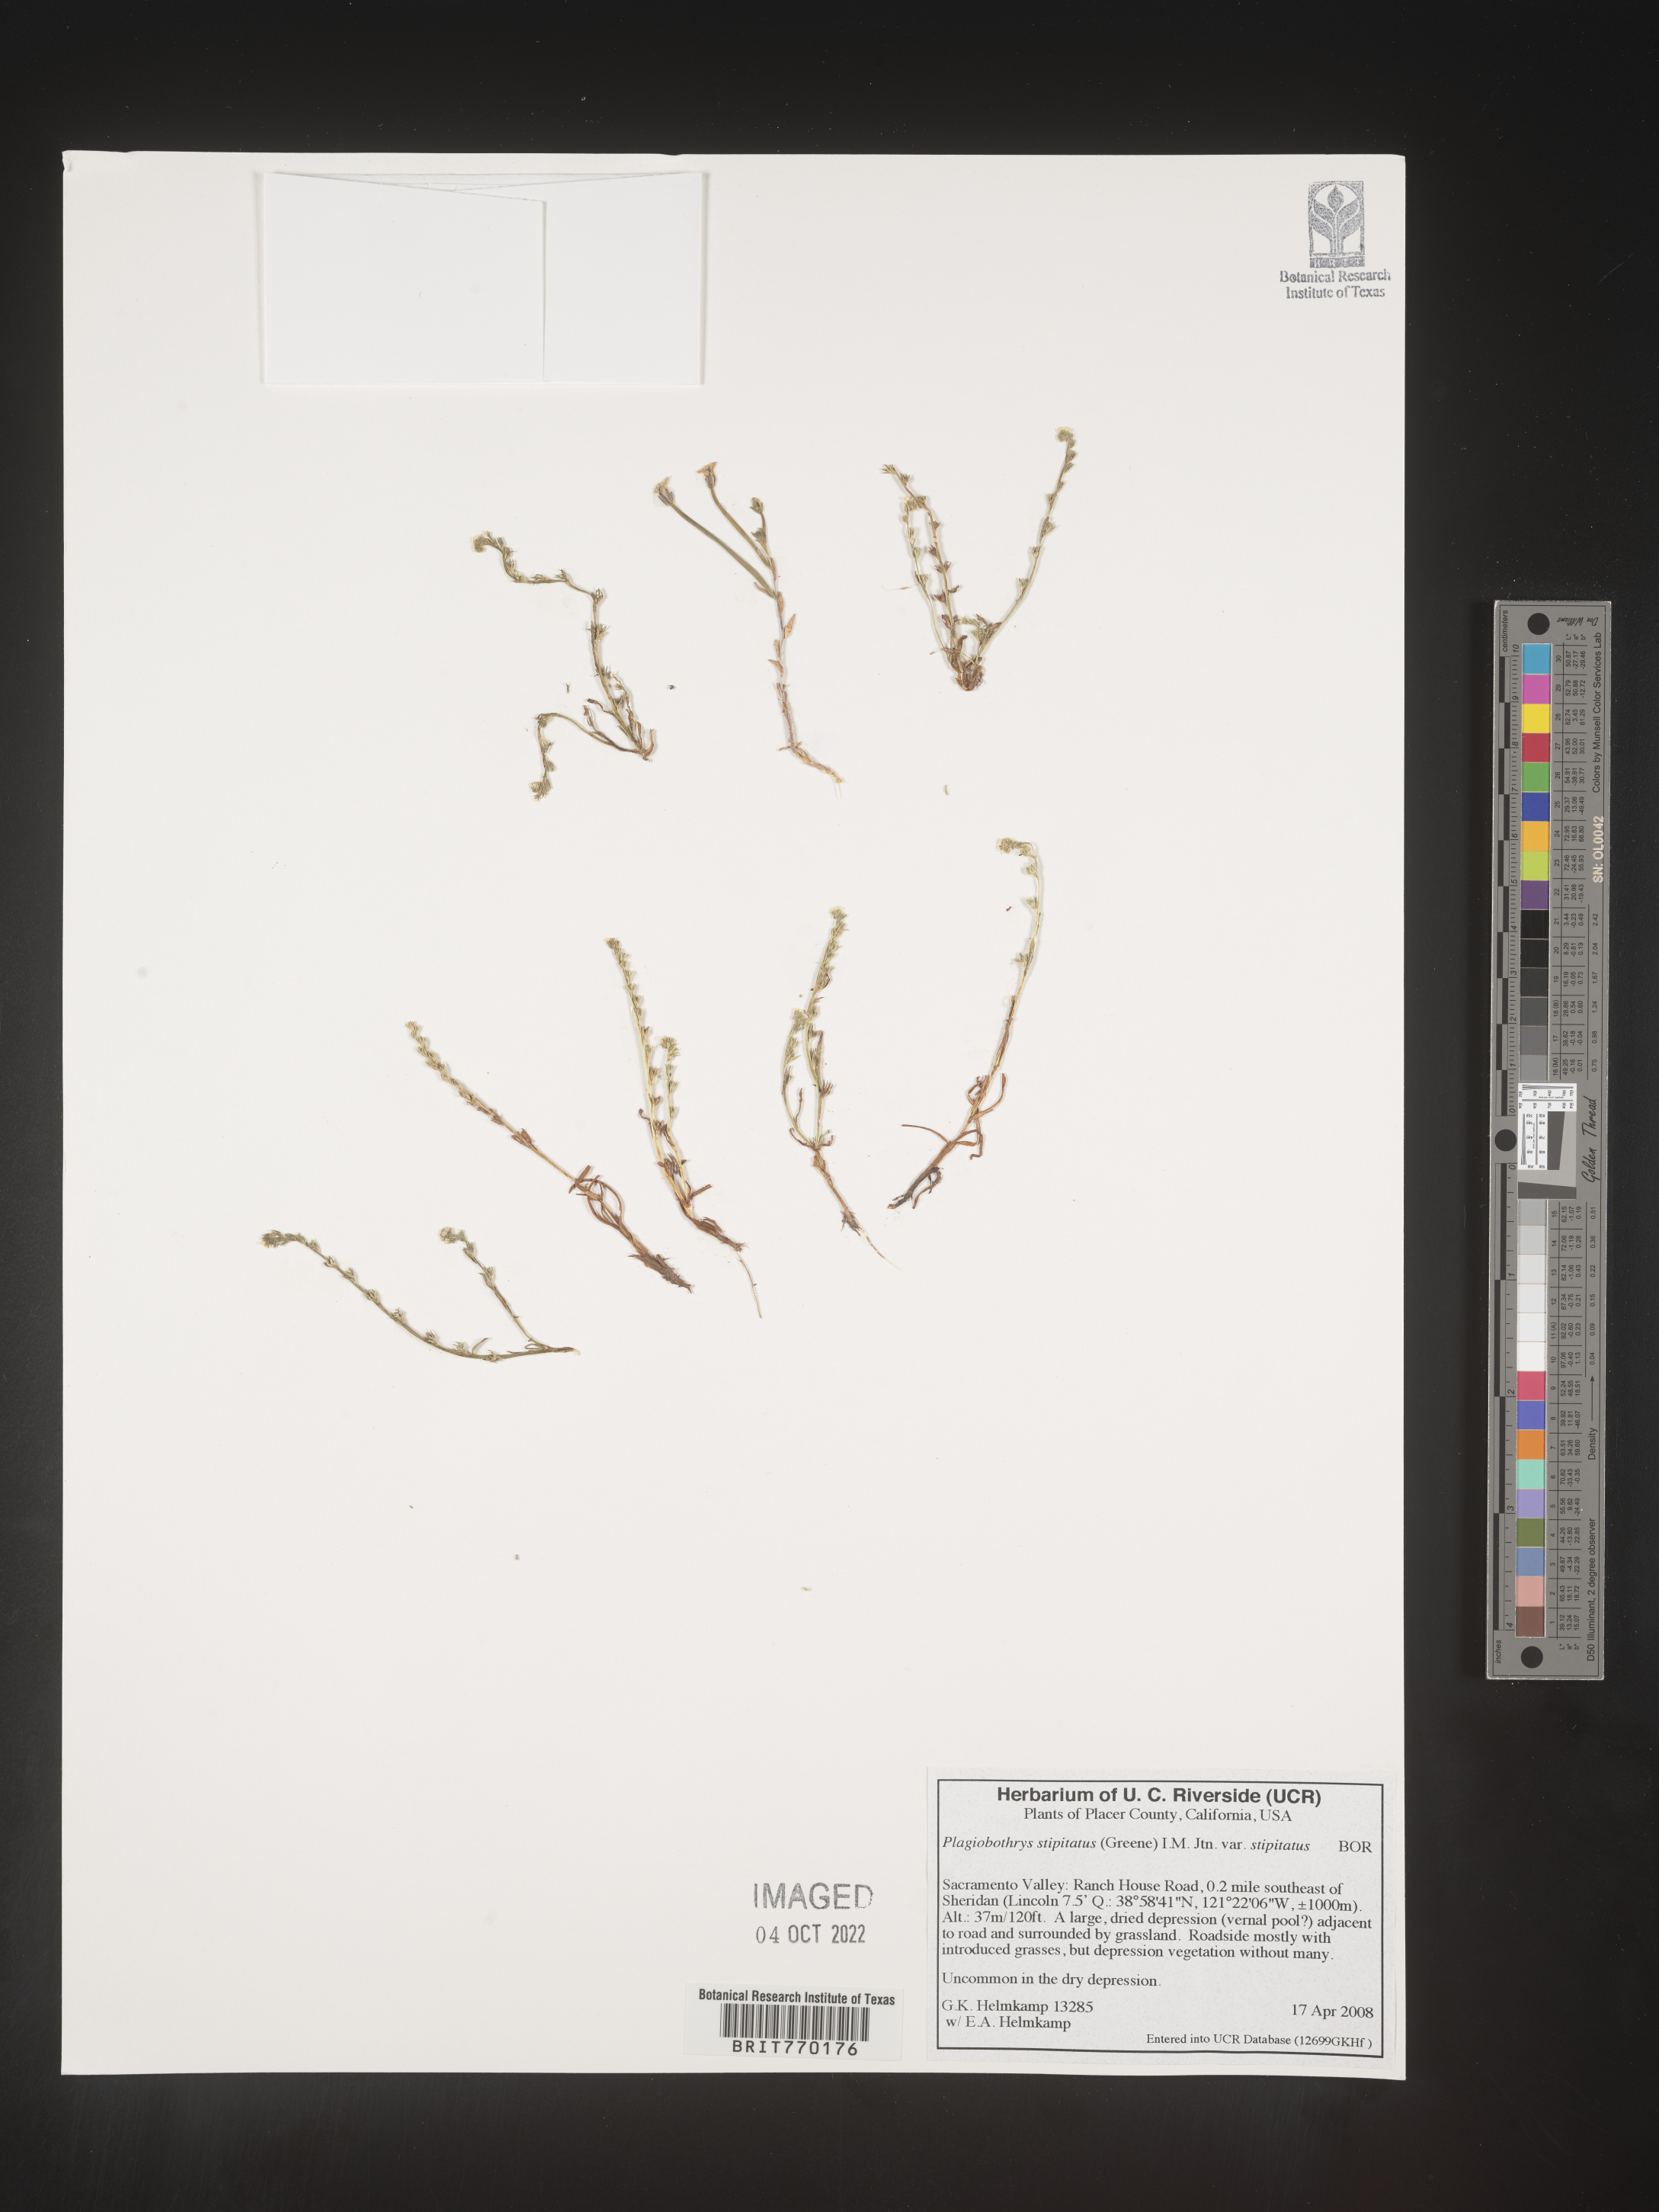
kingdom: Plantae
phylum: Tracheophyta
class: Magnoliopsida
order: Boraginales
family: Boraginaceae
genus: Plagiobothrys
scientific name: Plagiobothrys
